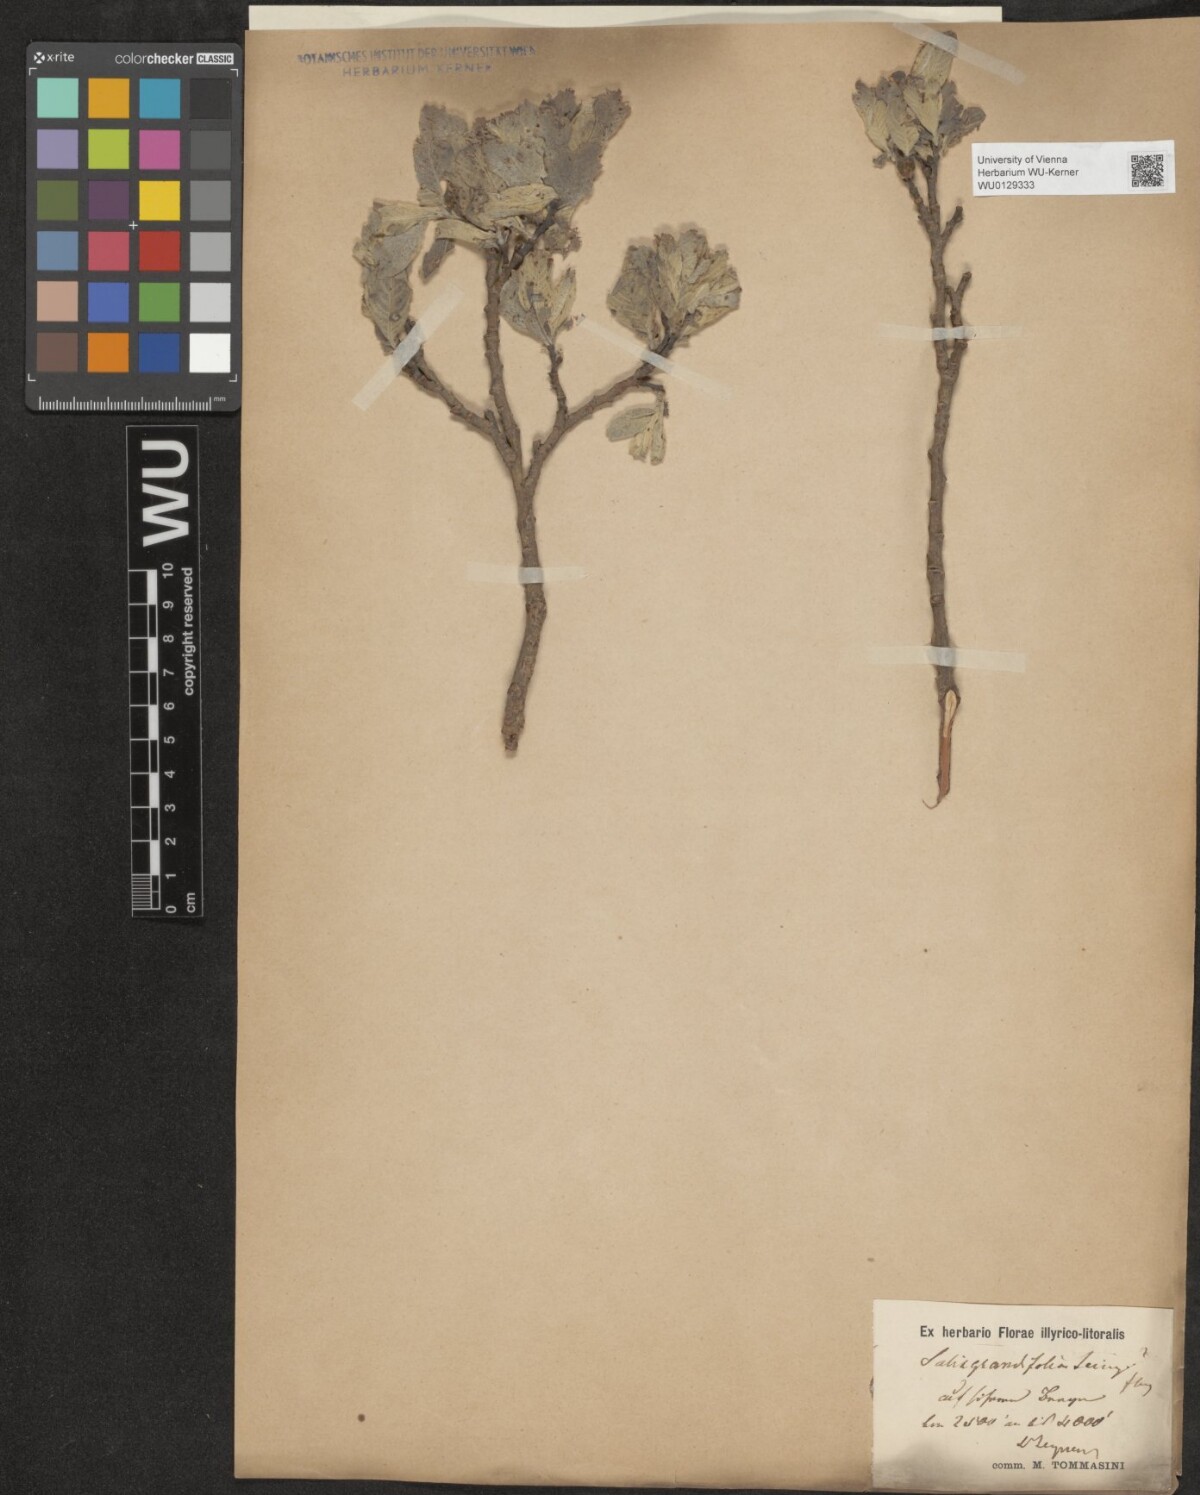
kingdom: Plantae
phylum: Tracheophyta
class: Magnoliopsida
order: Malpighiales
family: Salicaceae
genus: Salix
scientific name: Salix appendiculata
